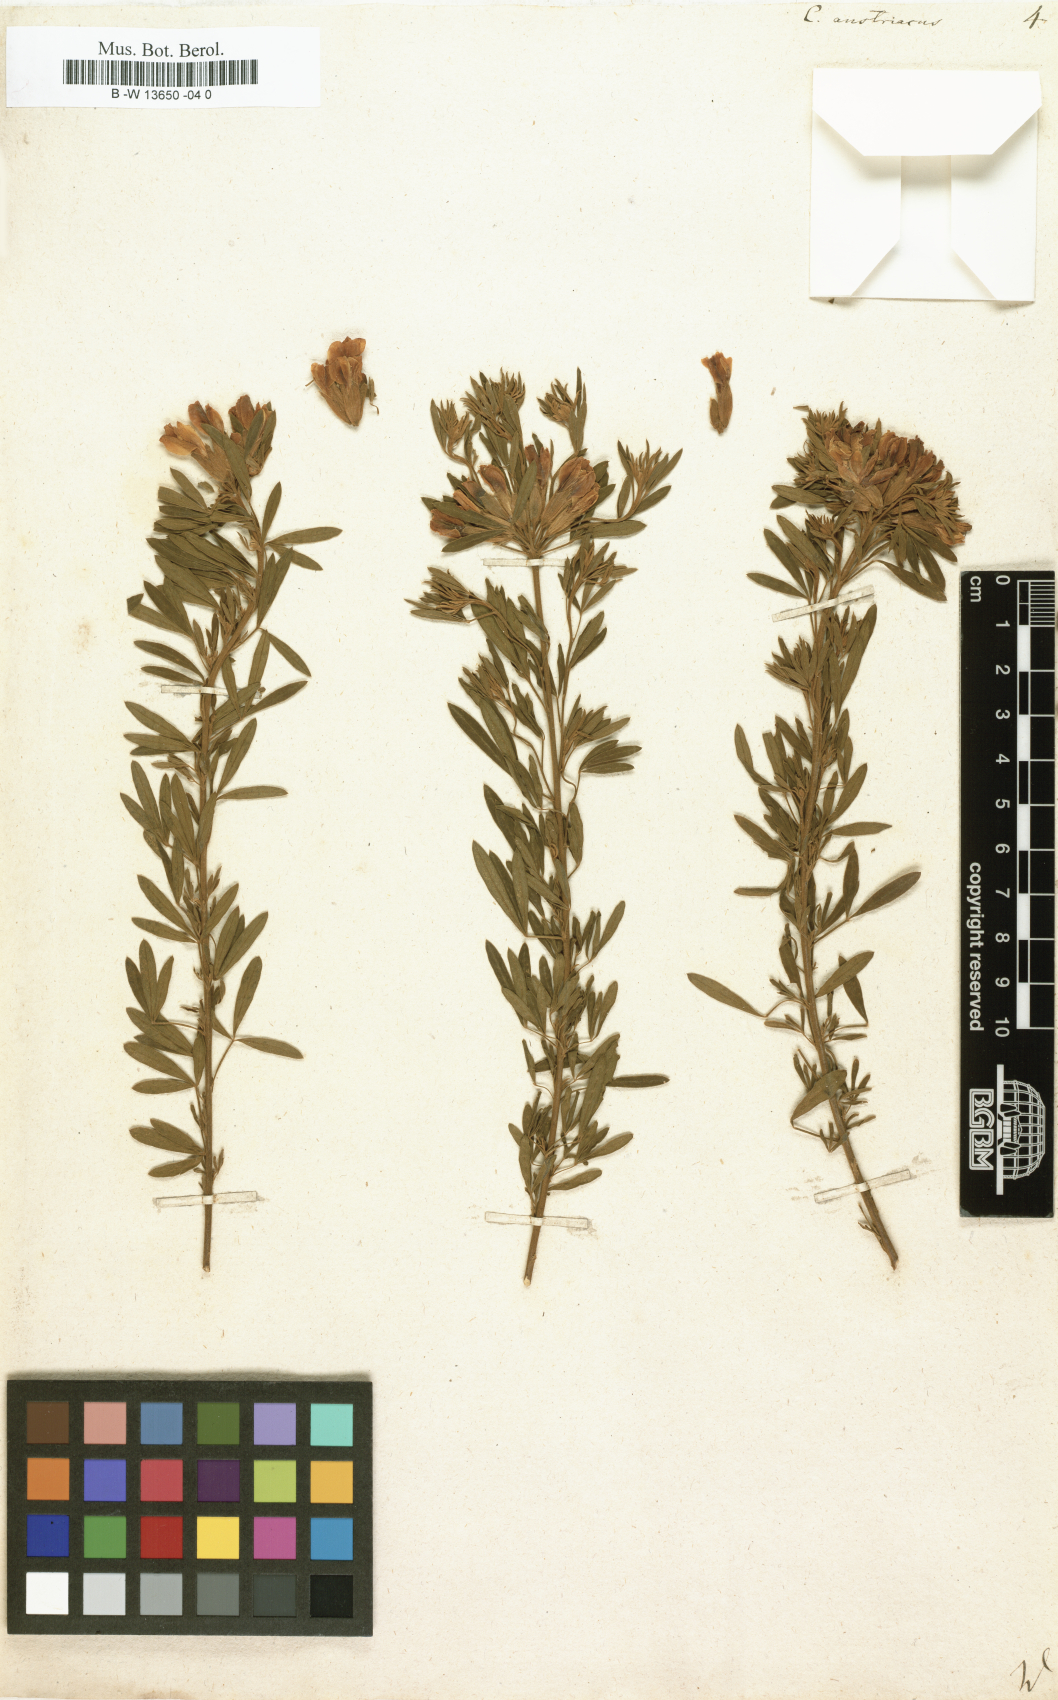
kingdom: Plantae
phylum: Tracheophyta
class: Magnoliopsida
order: Fabales
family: Fabaceae
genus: Chamaecytisus
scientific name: Chamaecytisus austriacus
